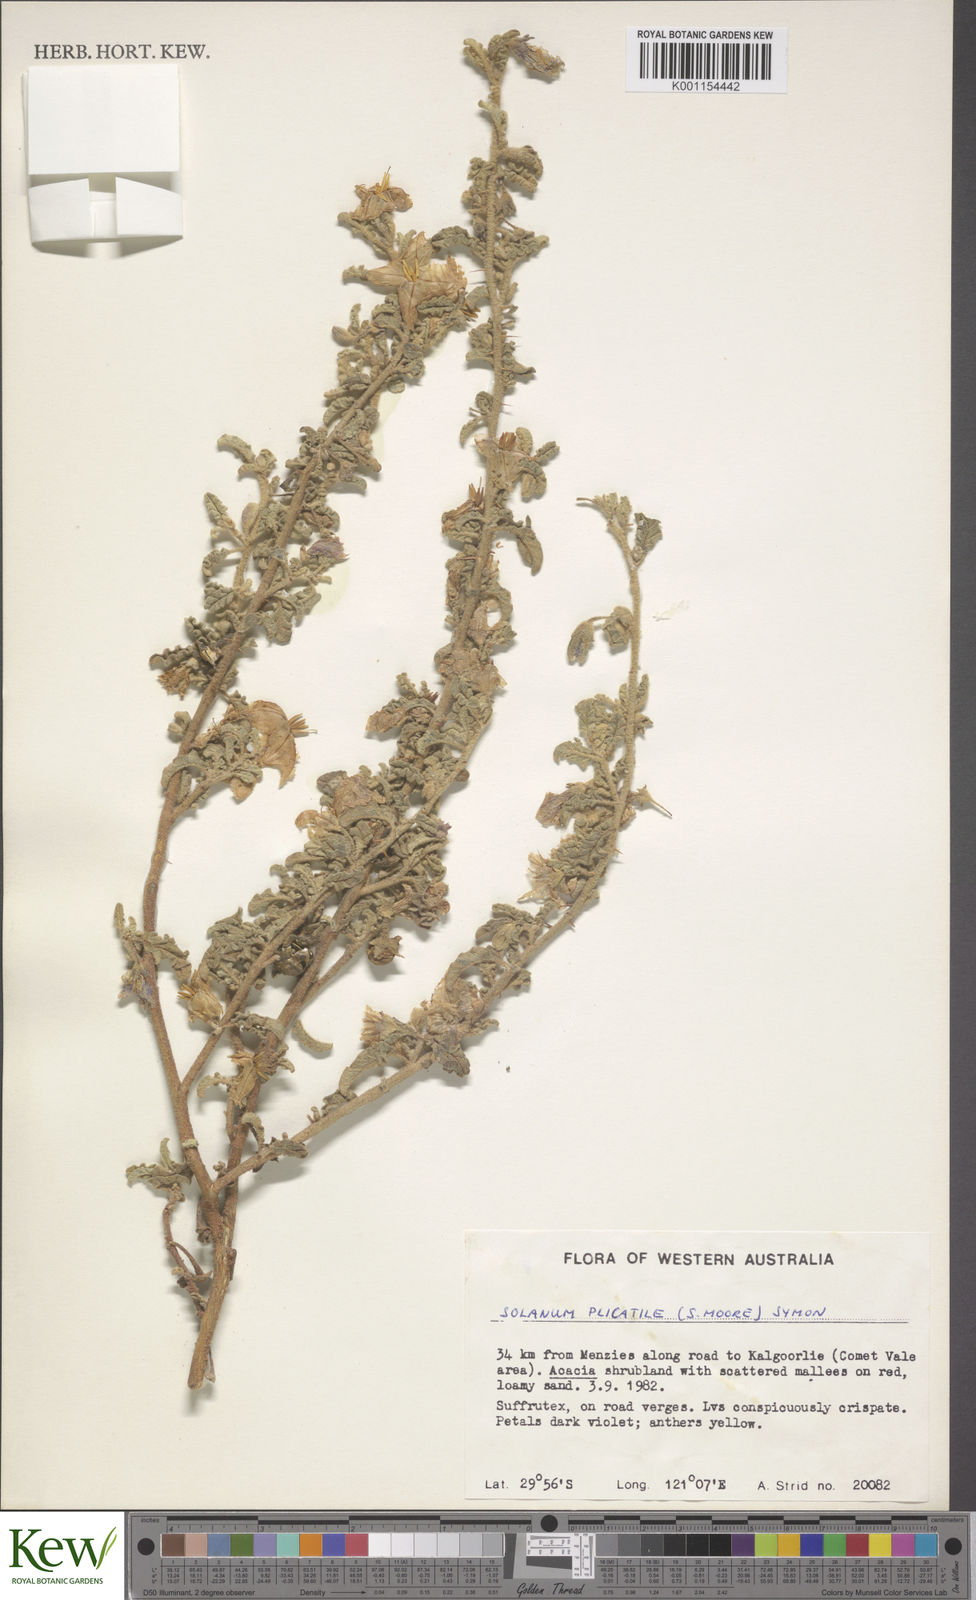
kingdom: Plantae
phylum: Tracheophyta
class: Magnoliopsida
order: Solanales
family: Solanaceae
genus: Solanum
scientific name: Solanum plicatile
